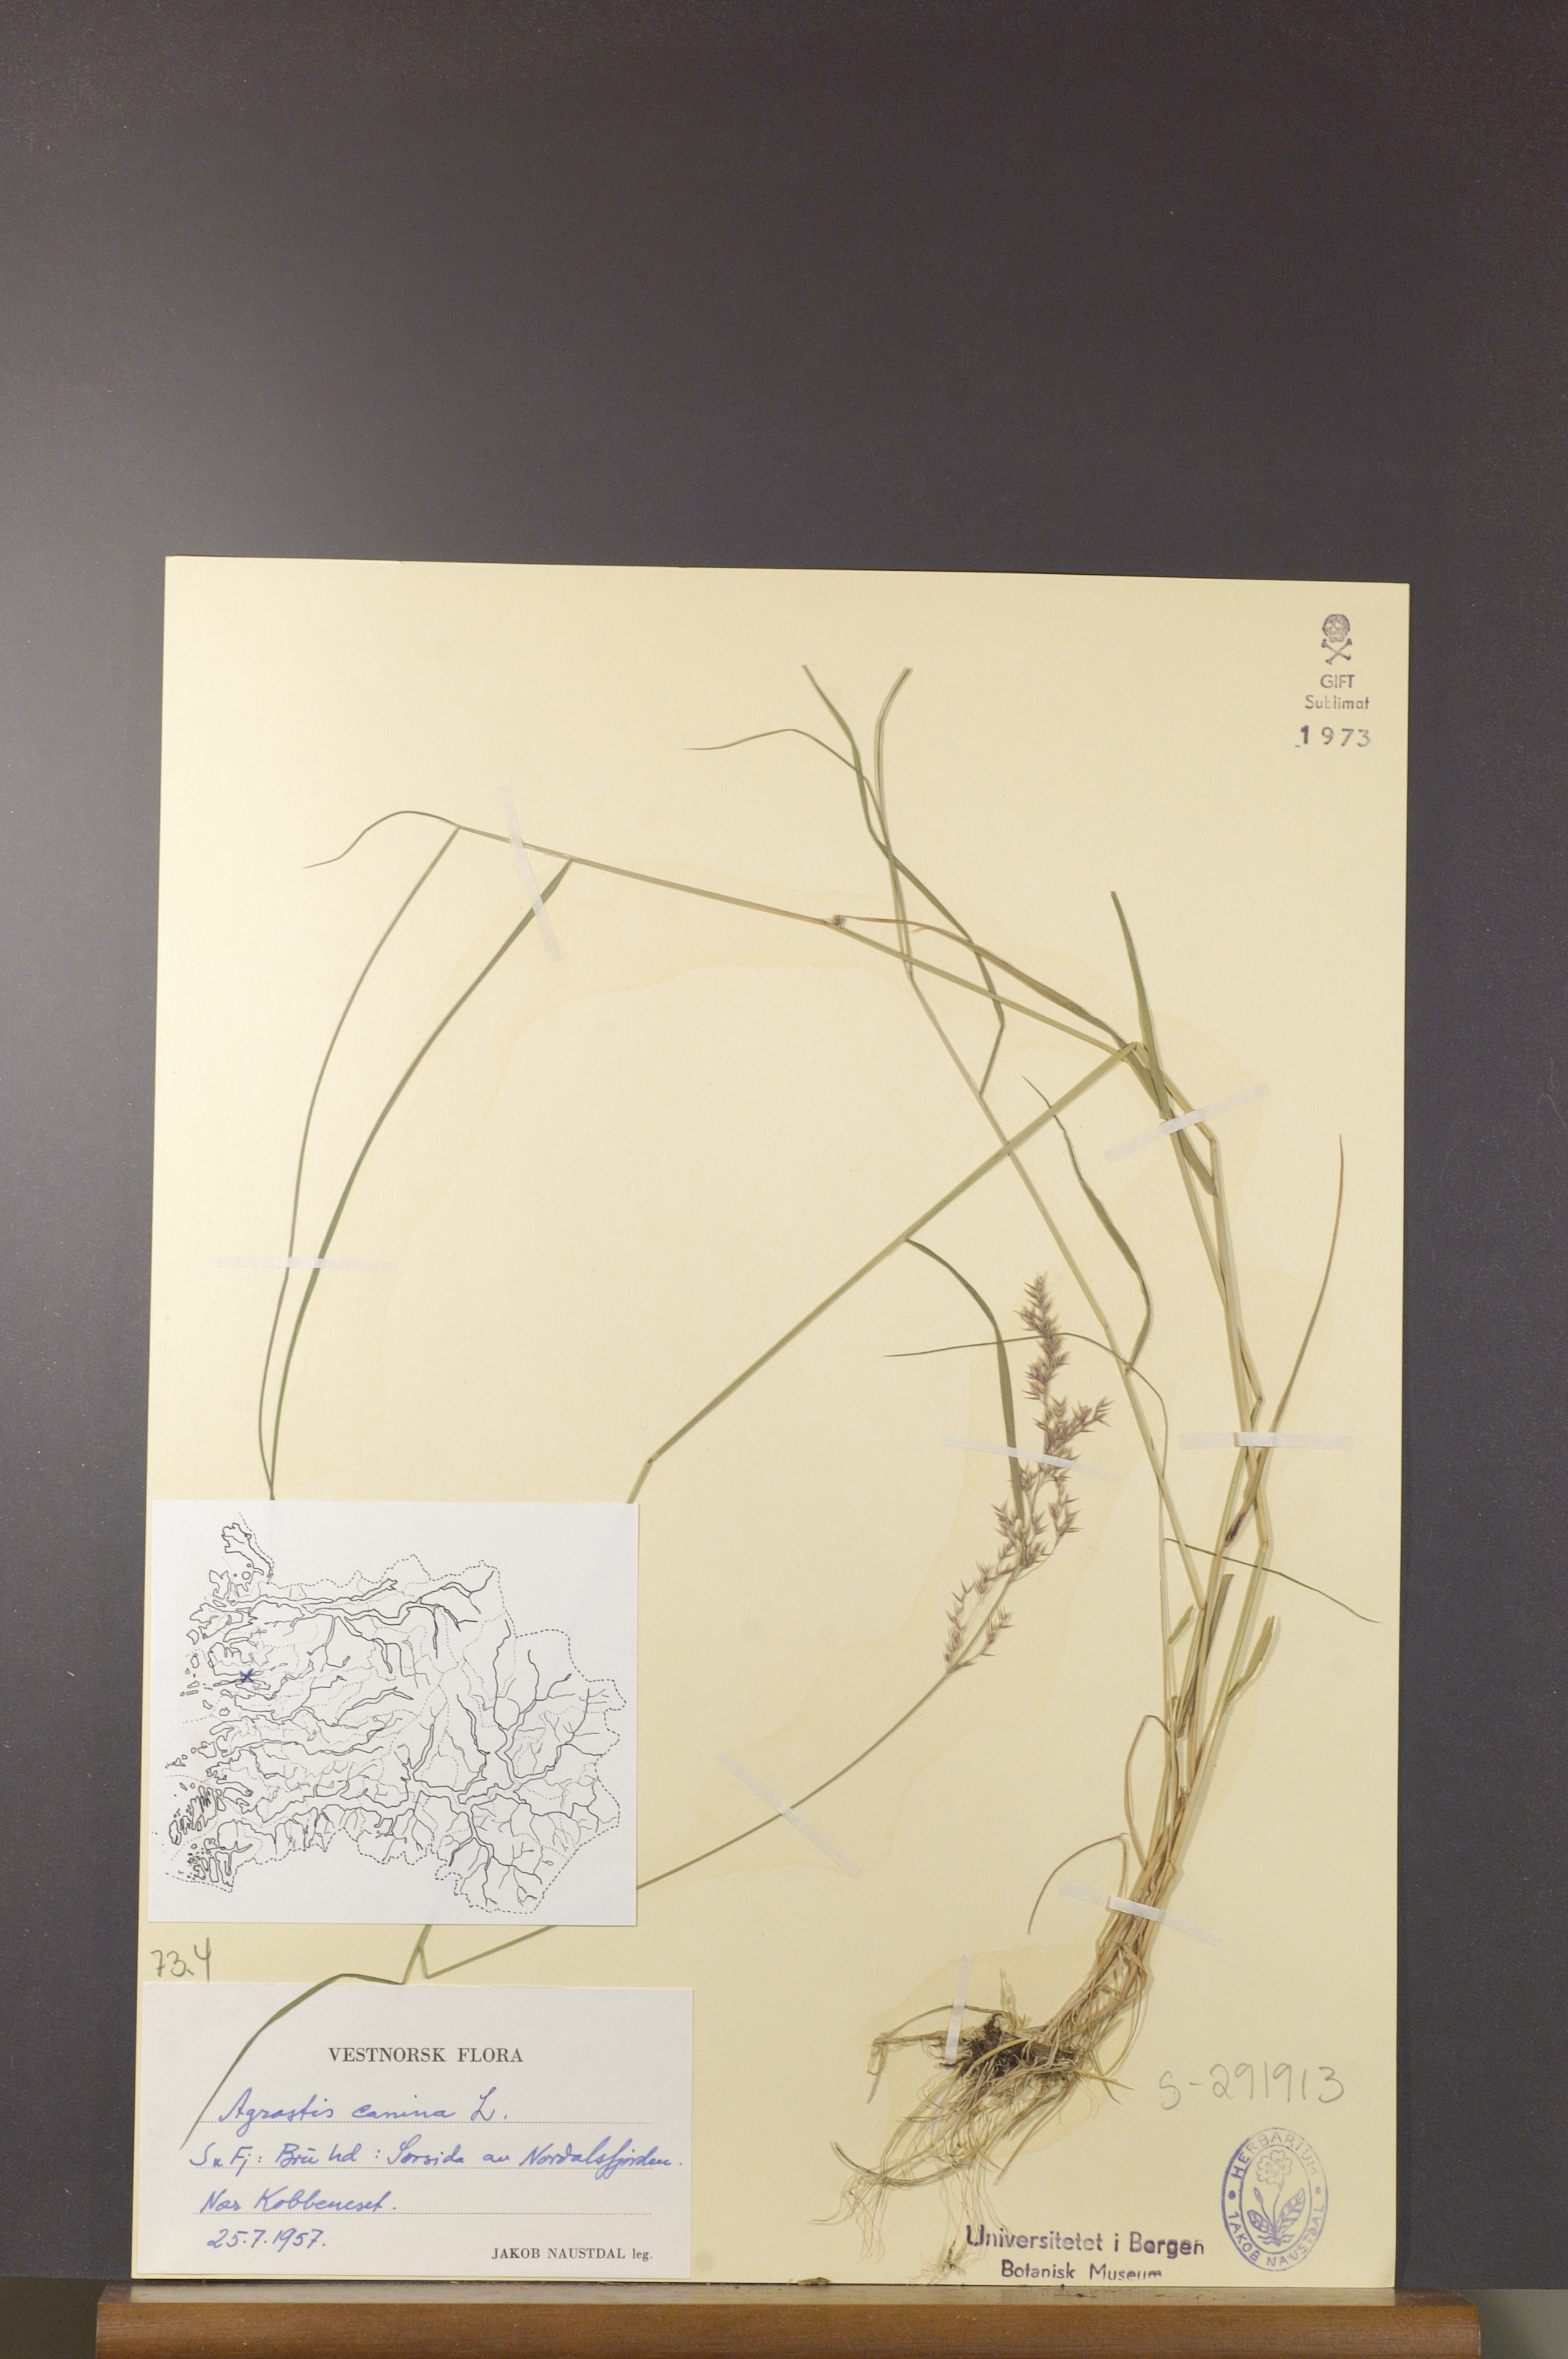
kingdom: Plantae
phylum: Tracheophyta
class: Liliopsida
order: Poales
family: Poaceae
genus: Agrostis
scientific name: Agrostis canina
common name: Velvet bent
